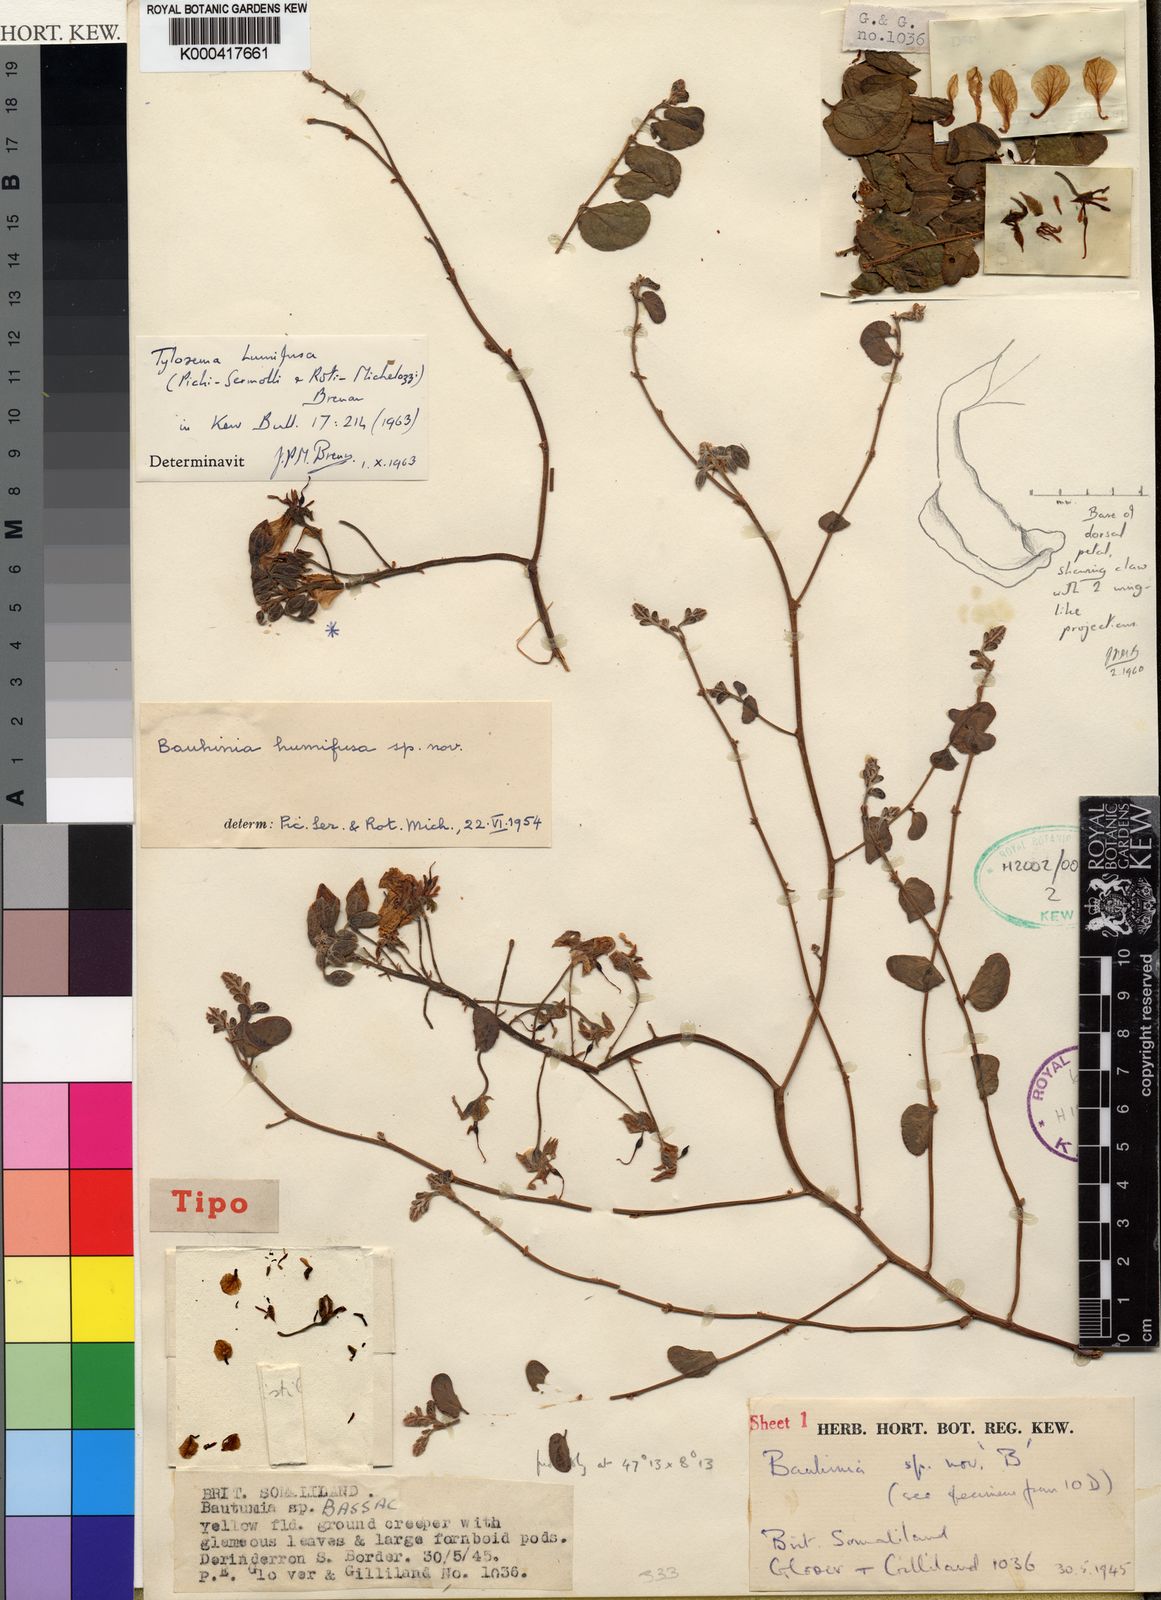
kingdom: Plantae
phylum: Tracheophyta
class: Magnoliopsida
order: Fabales
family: Fabaceae
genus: Tylosema
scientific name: Tylosema
